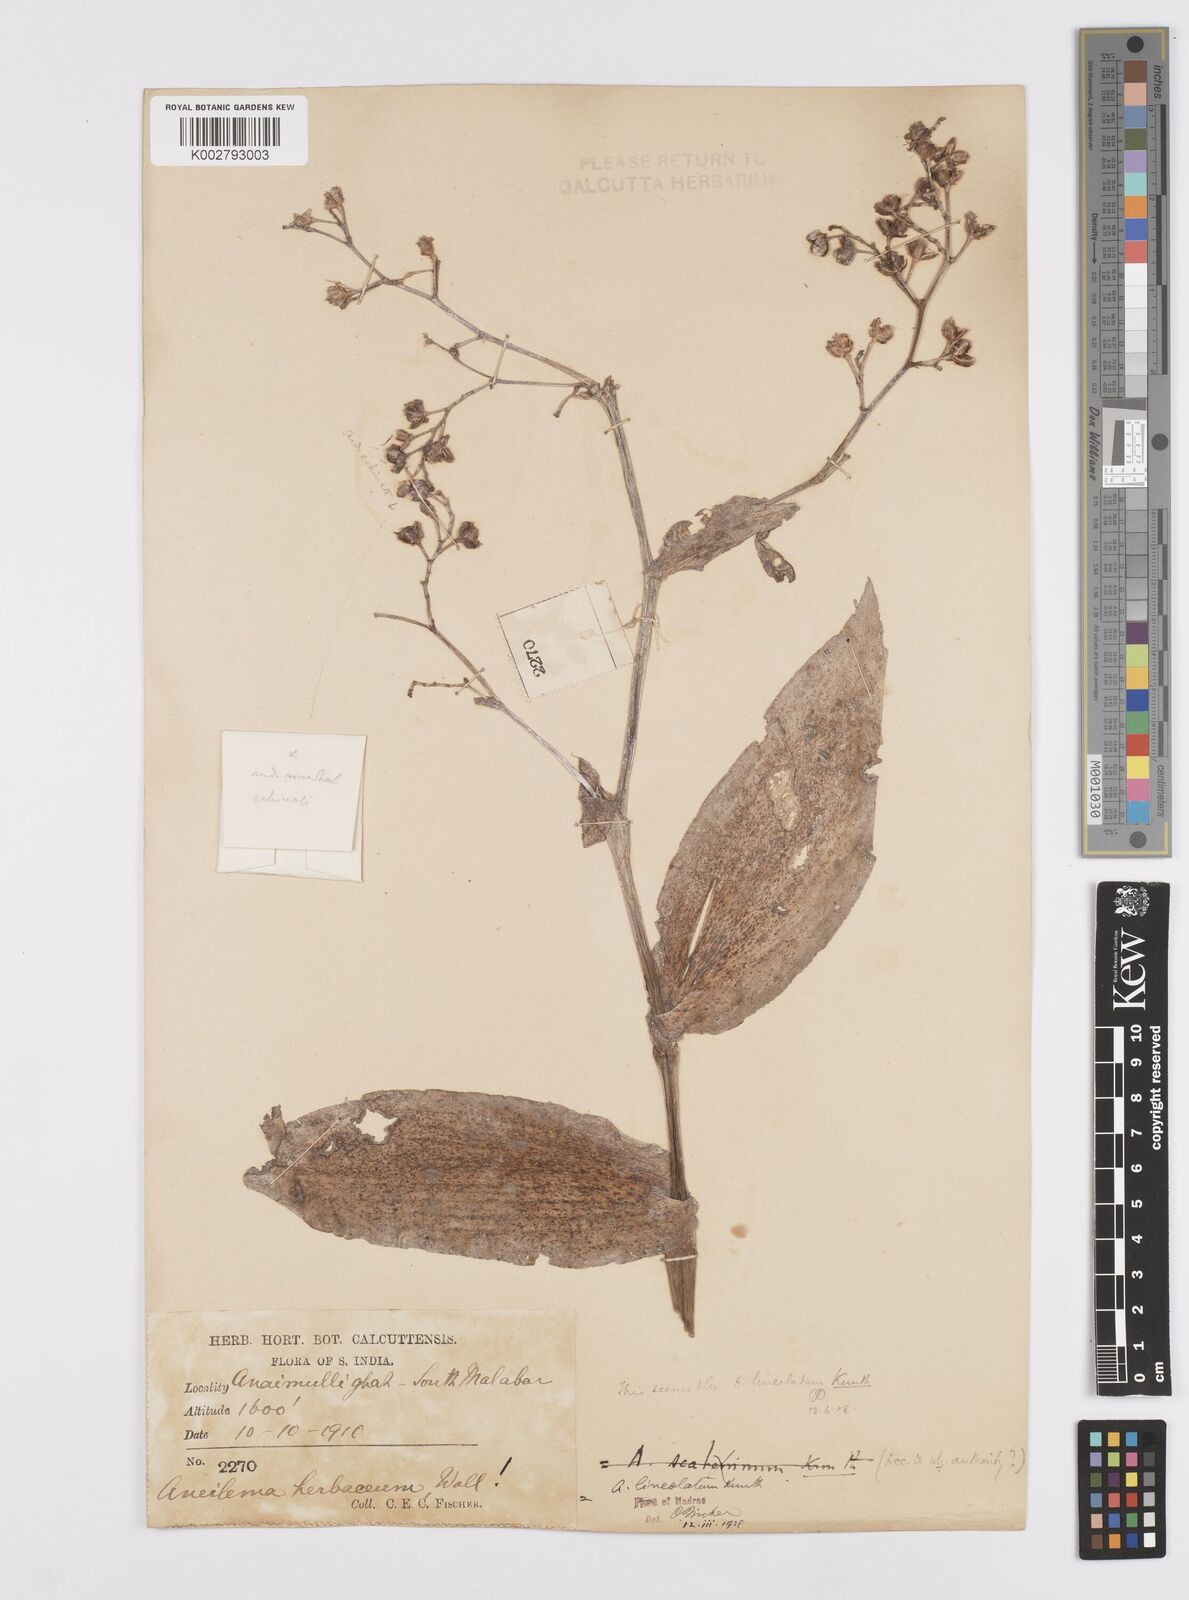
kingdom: Plantae
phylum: Tracheophyta
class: Liliopsida
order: Commelinales
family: Commelinaceae
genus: Murdannia
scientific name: Murdannia
